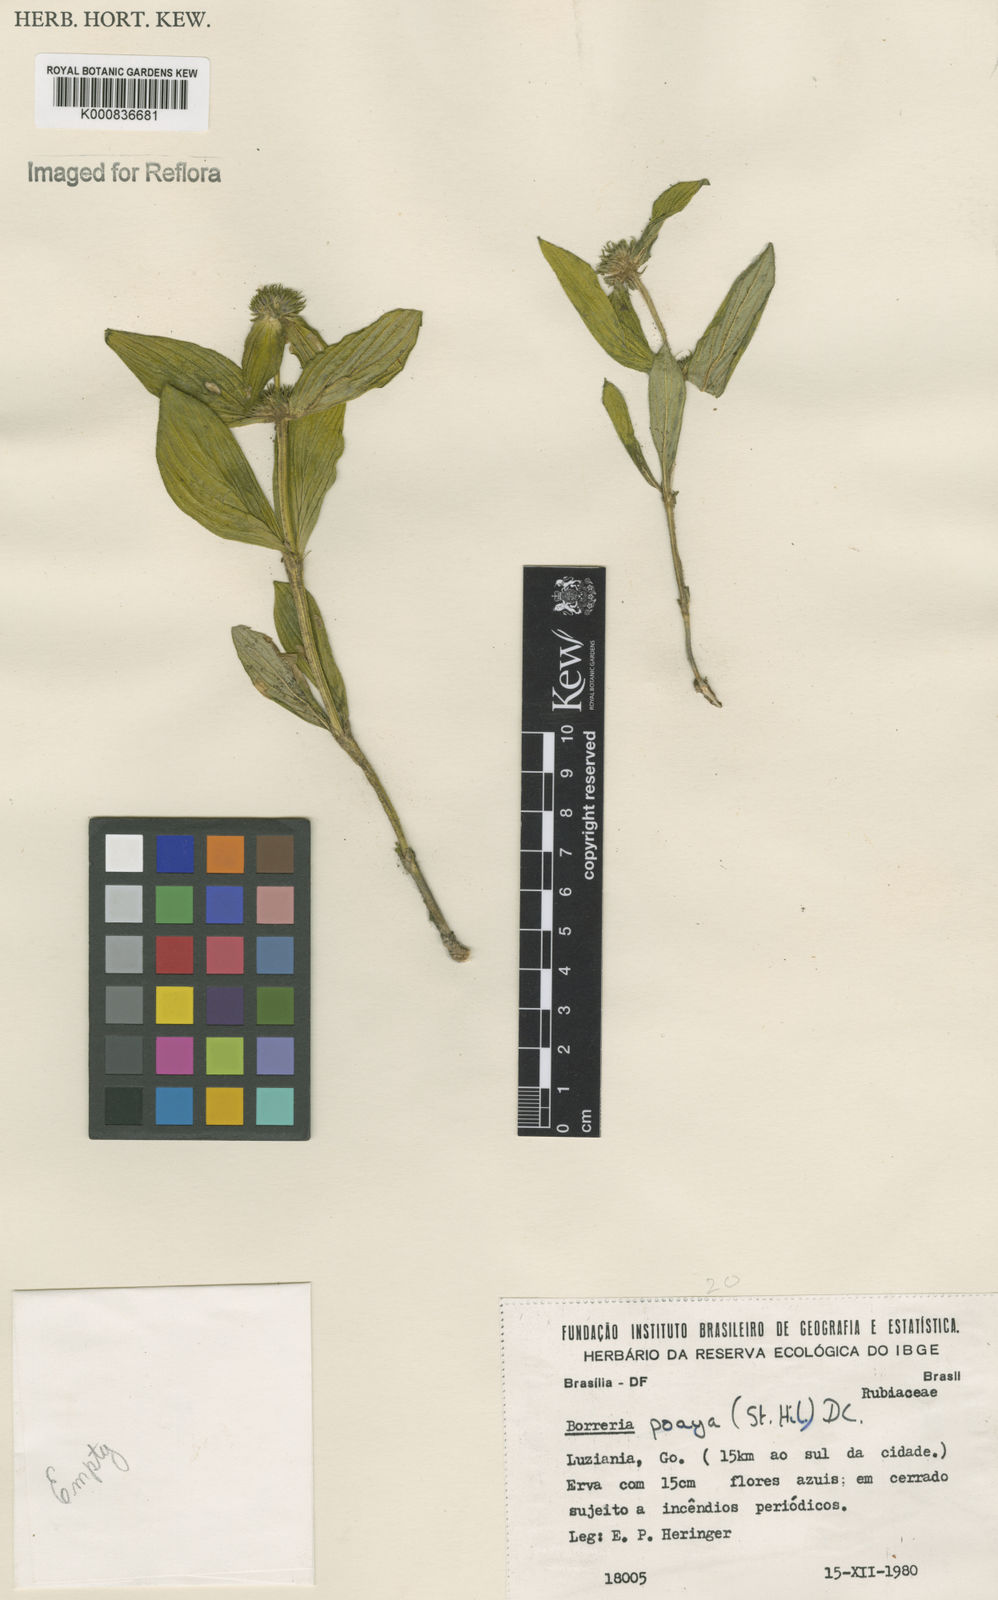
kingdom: Plantae
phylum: Tracheophyta
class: Magnoliopsida
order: Gentianales
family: Rubiaceae
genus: Spermacoce
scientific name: Spermacoce poaya
